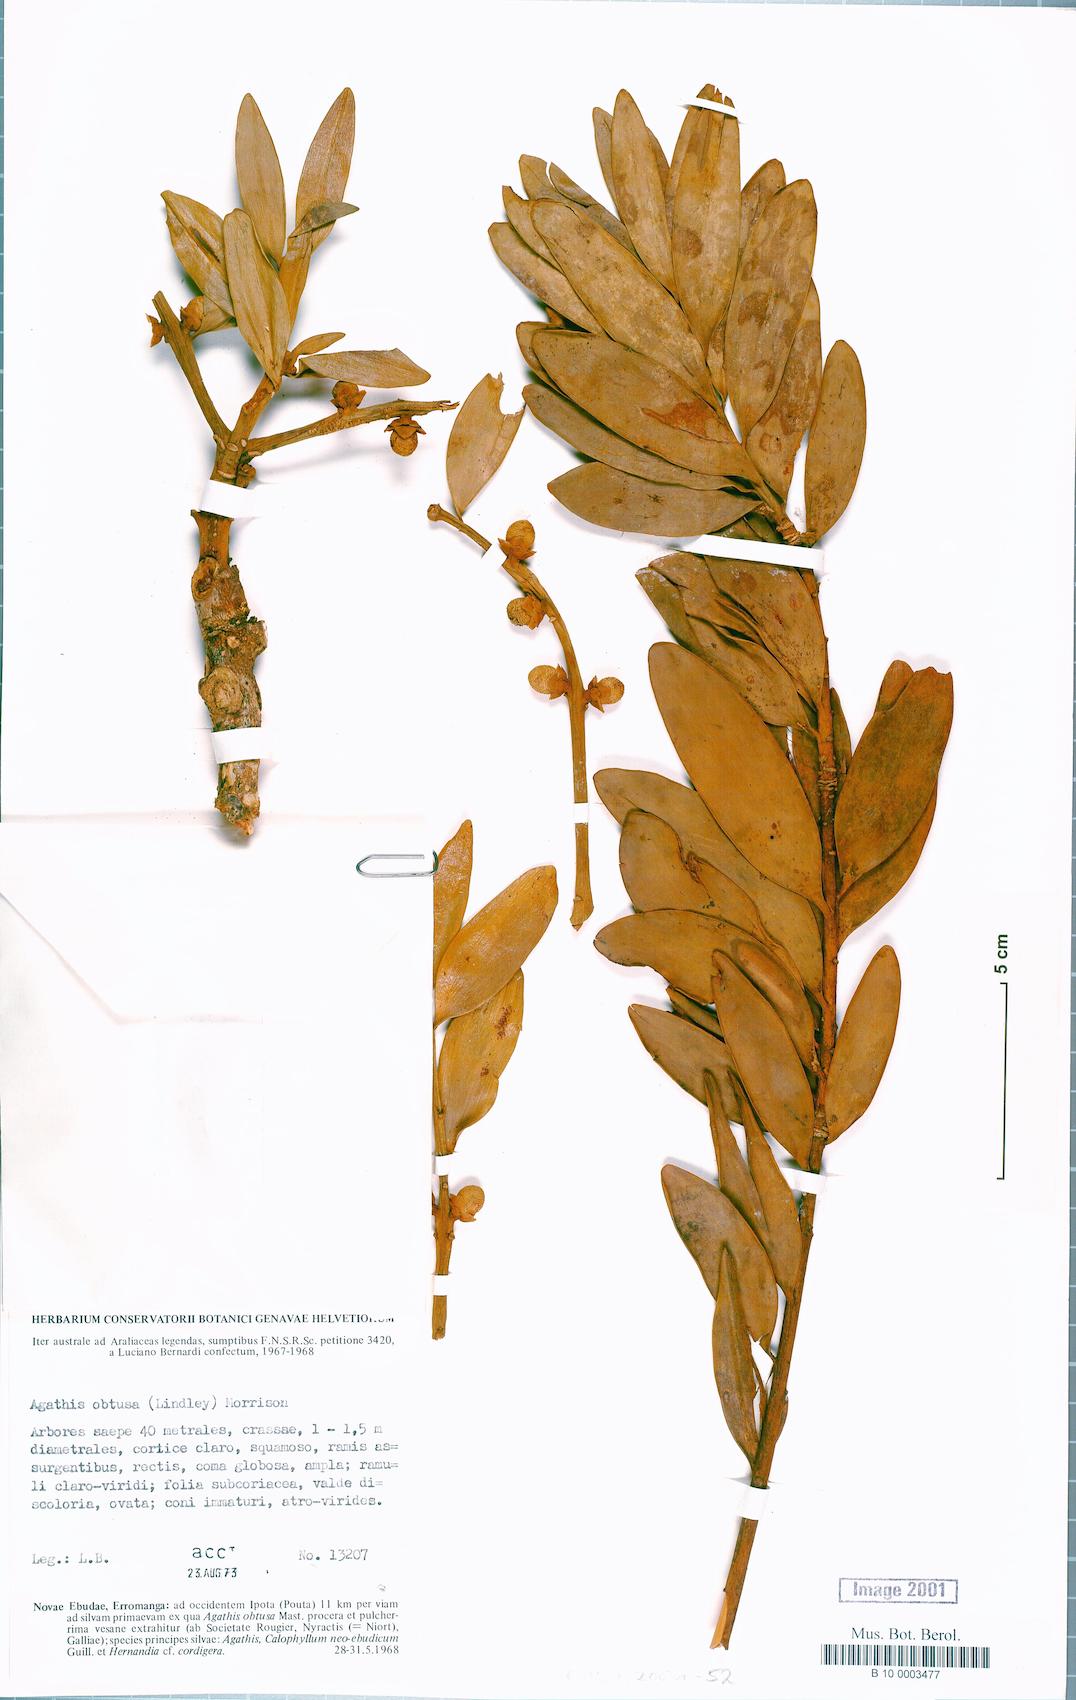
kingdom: Plantae
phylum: Tracheophyta
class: Pinopsida
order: Pinales
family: Araucariaceae
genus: Agathis
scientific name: Agathis macrophylla
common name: Fijian kauri pine
